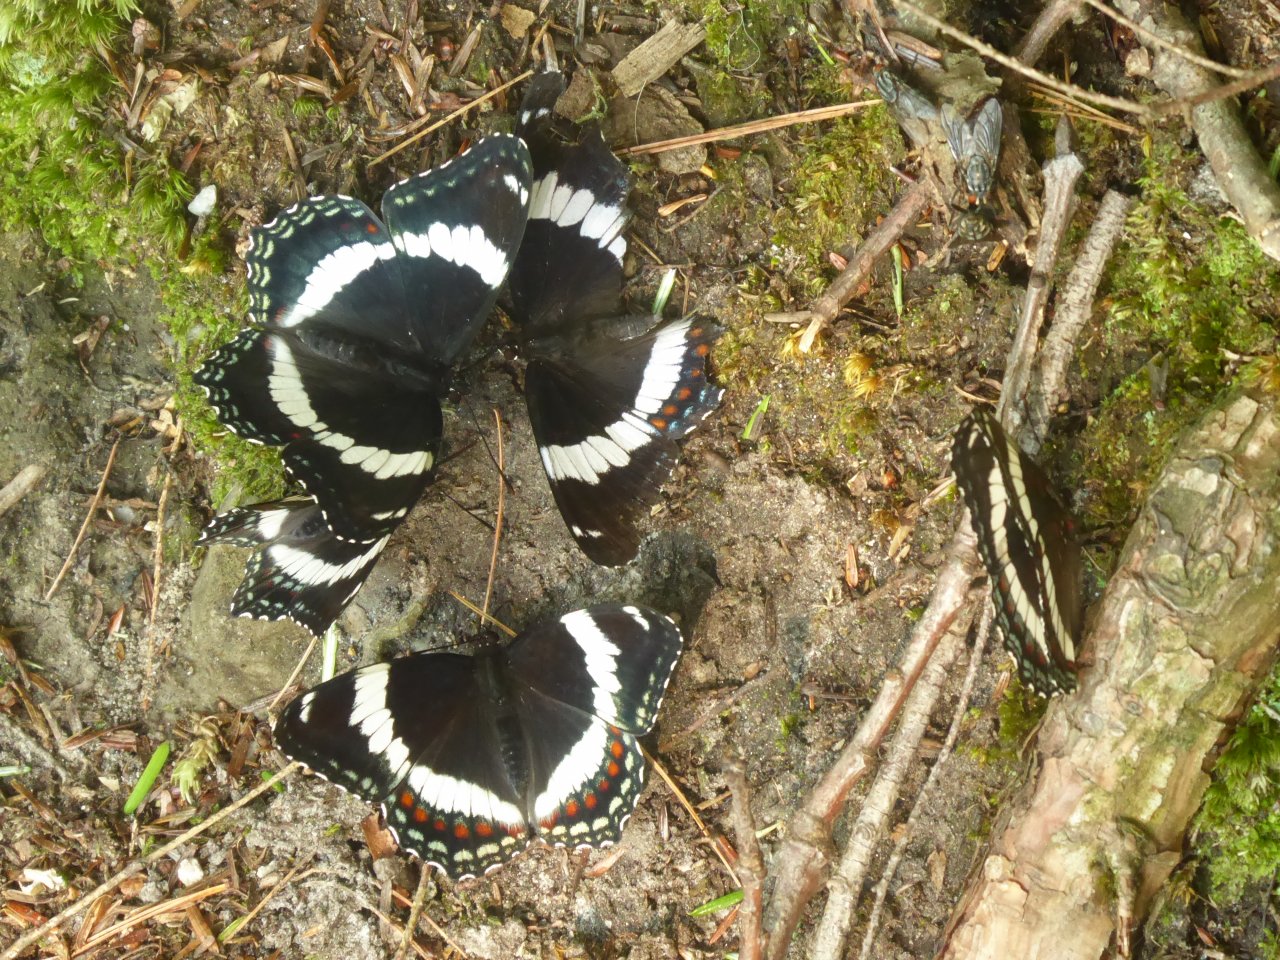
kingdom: Animalia
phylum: Arthropoda
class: Insecta
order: Lepidoptera
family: Nymphalidae
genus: Limenitis
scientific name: Limenitis arthemis
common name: Red-spotted Admiral
